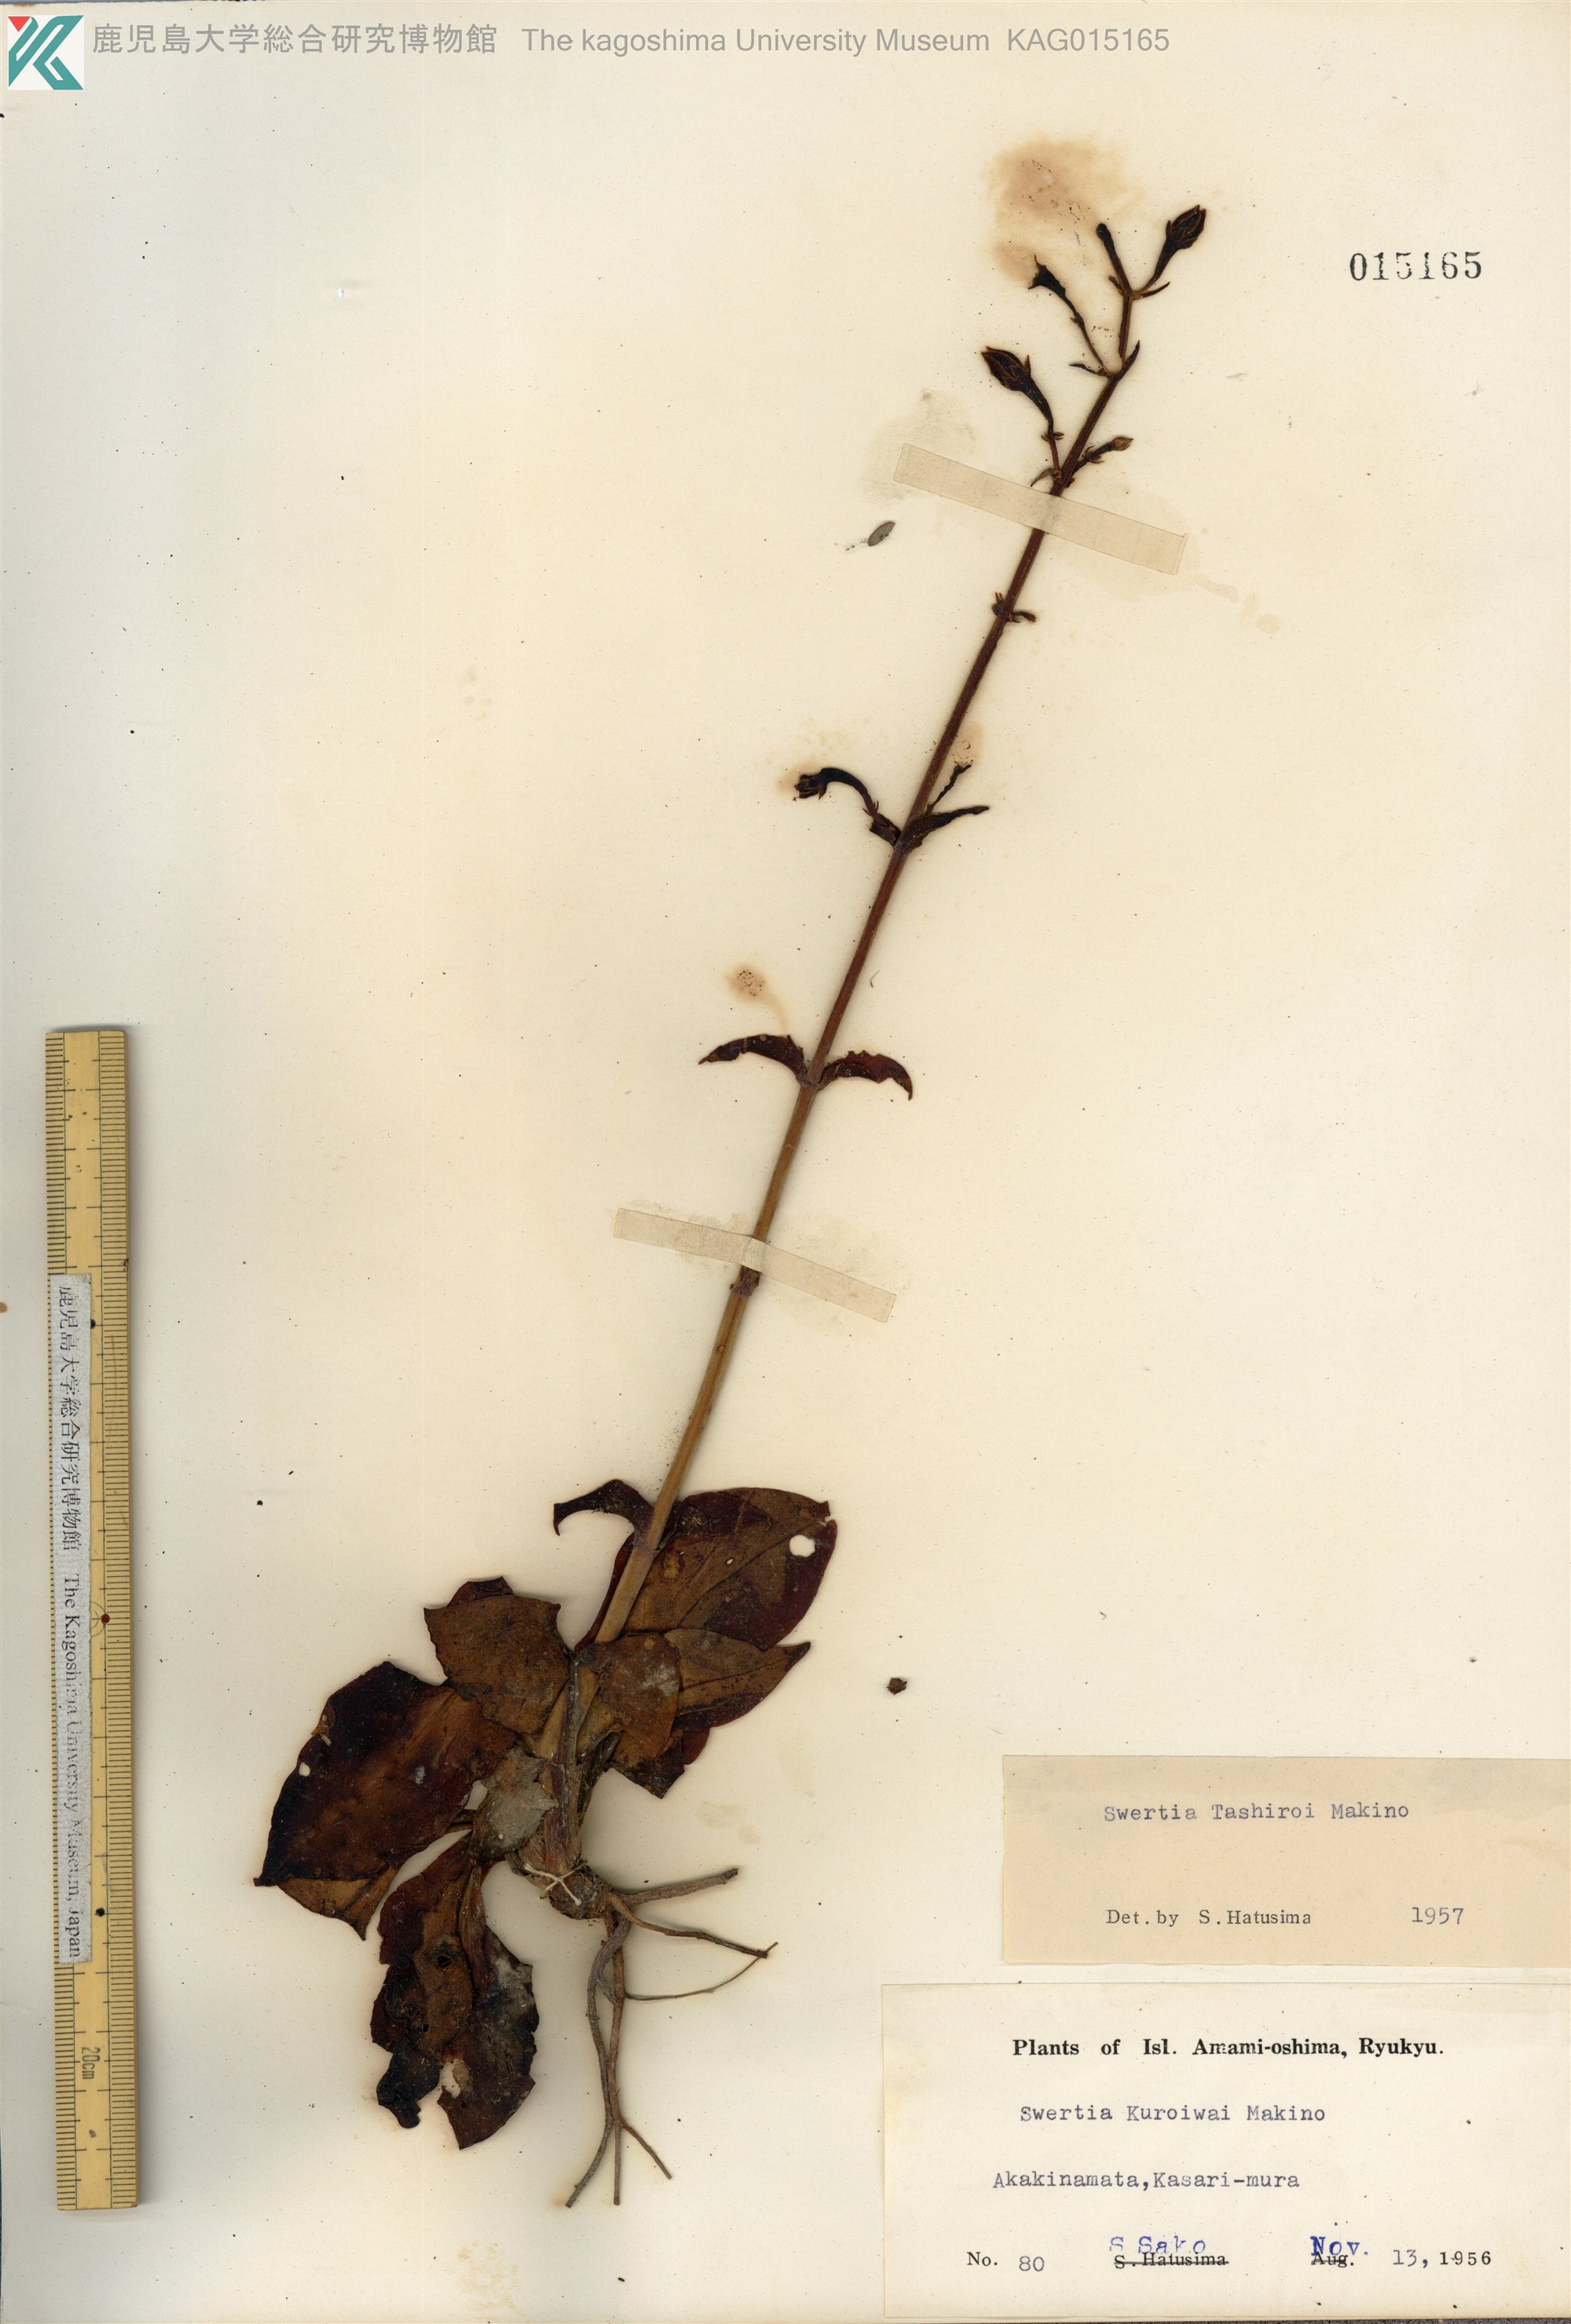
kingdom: Plantae
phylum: Tracheophyta
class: Magnoliopsida
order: Gentianales
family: Gentianaceae
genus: Swertia
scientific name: Swertia tashiroi
